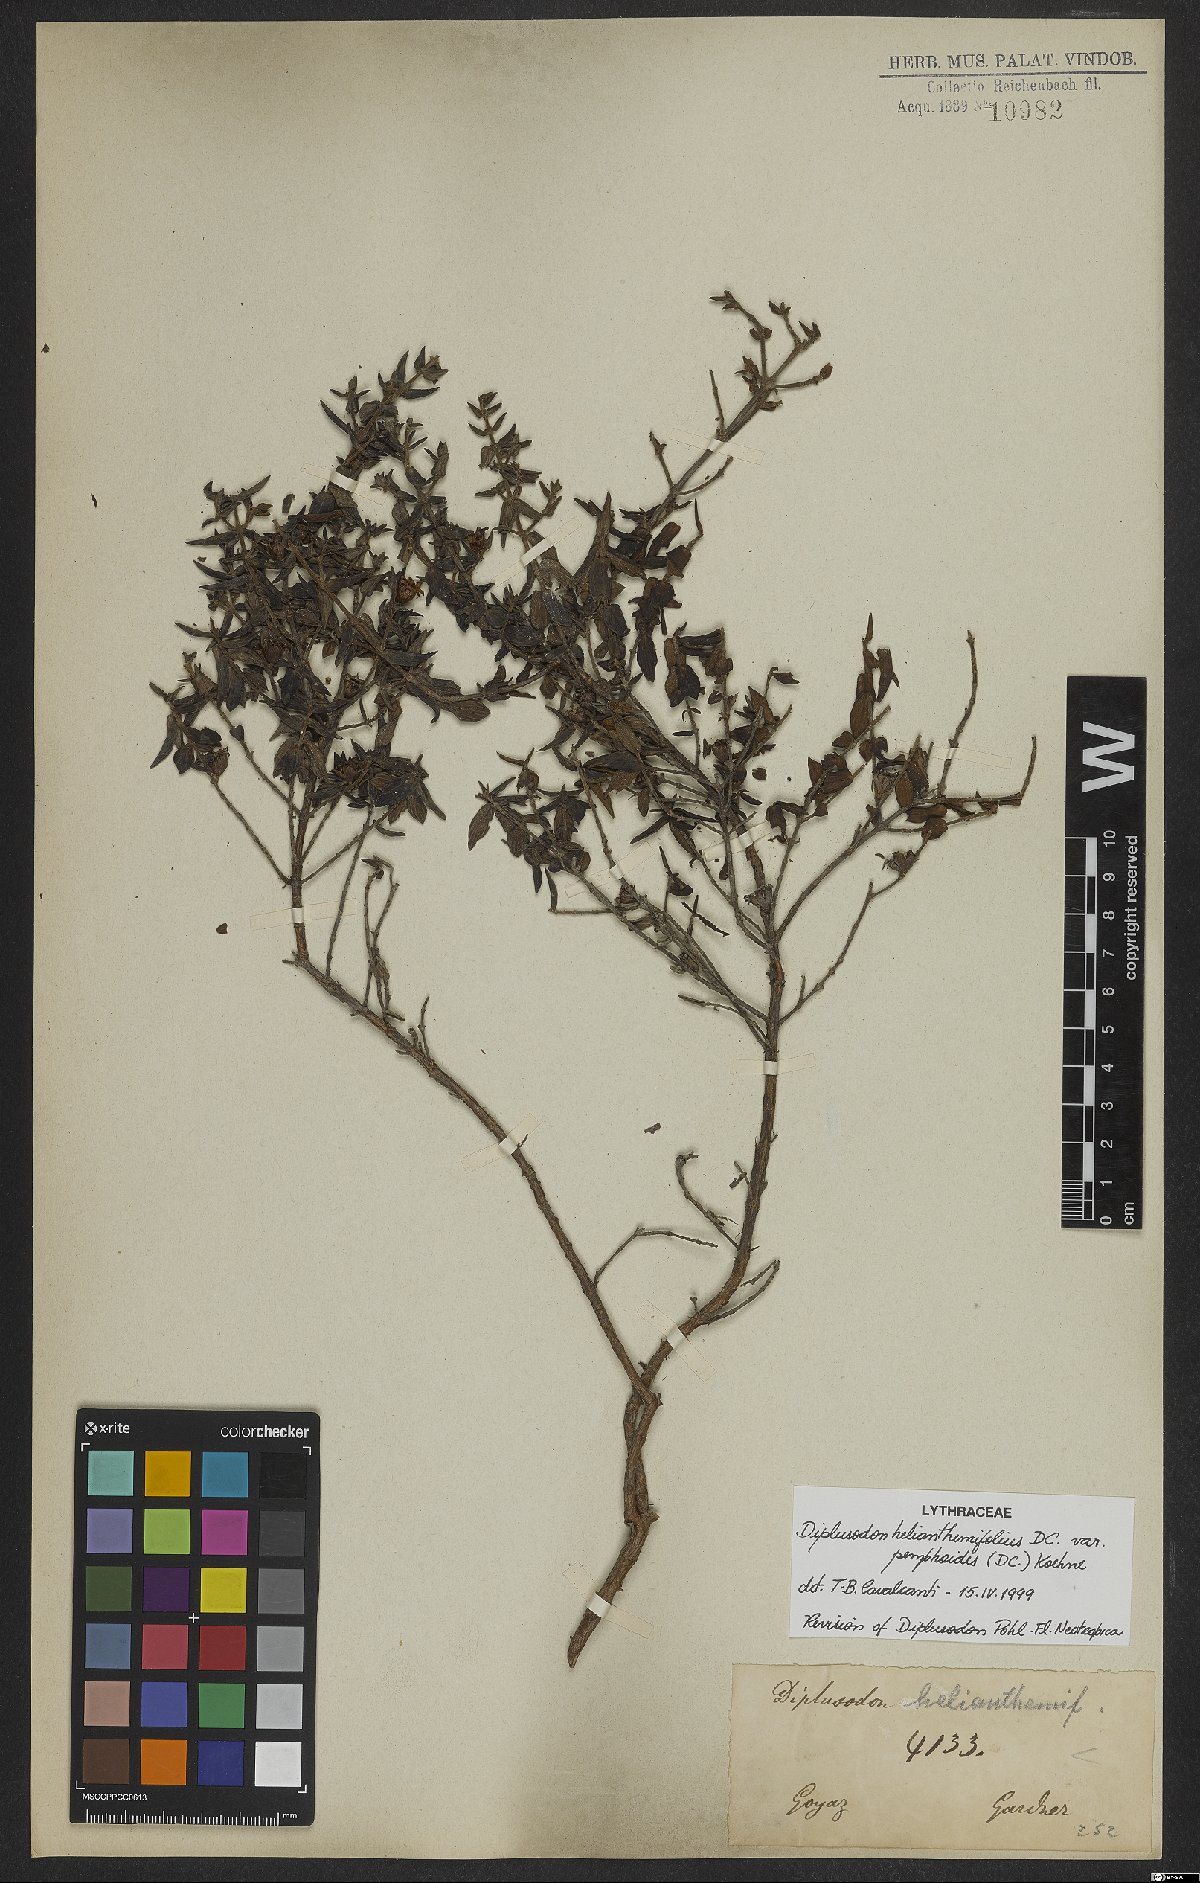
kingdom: Plantae
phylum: Tracheophyta
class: Magnoliopsida
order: Myrtales
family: Lythraceae
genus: Diplusodon
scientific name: Diplusodon helianthemifolius
